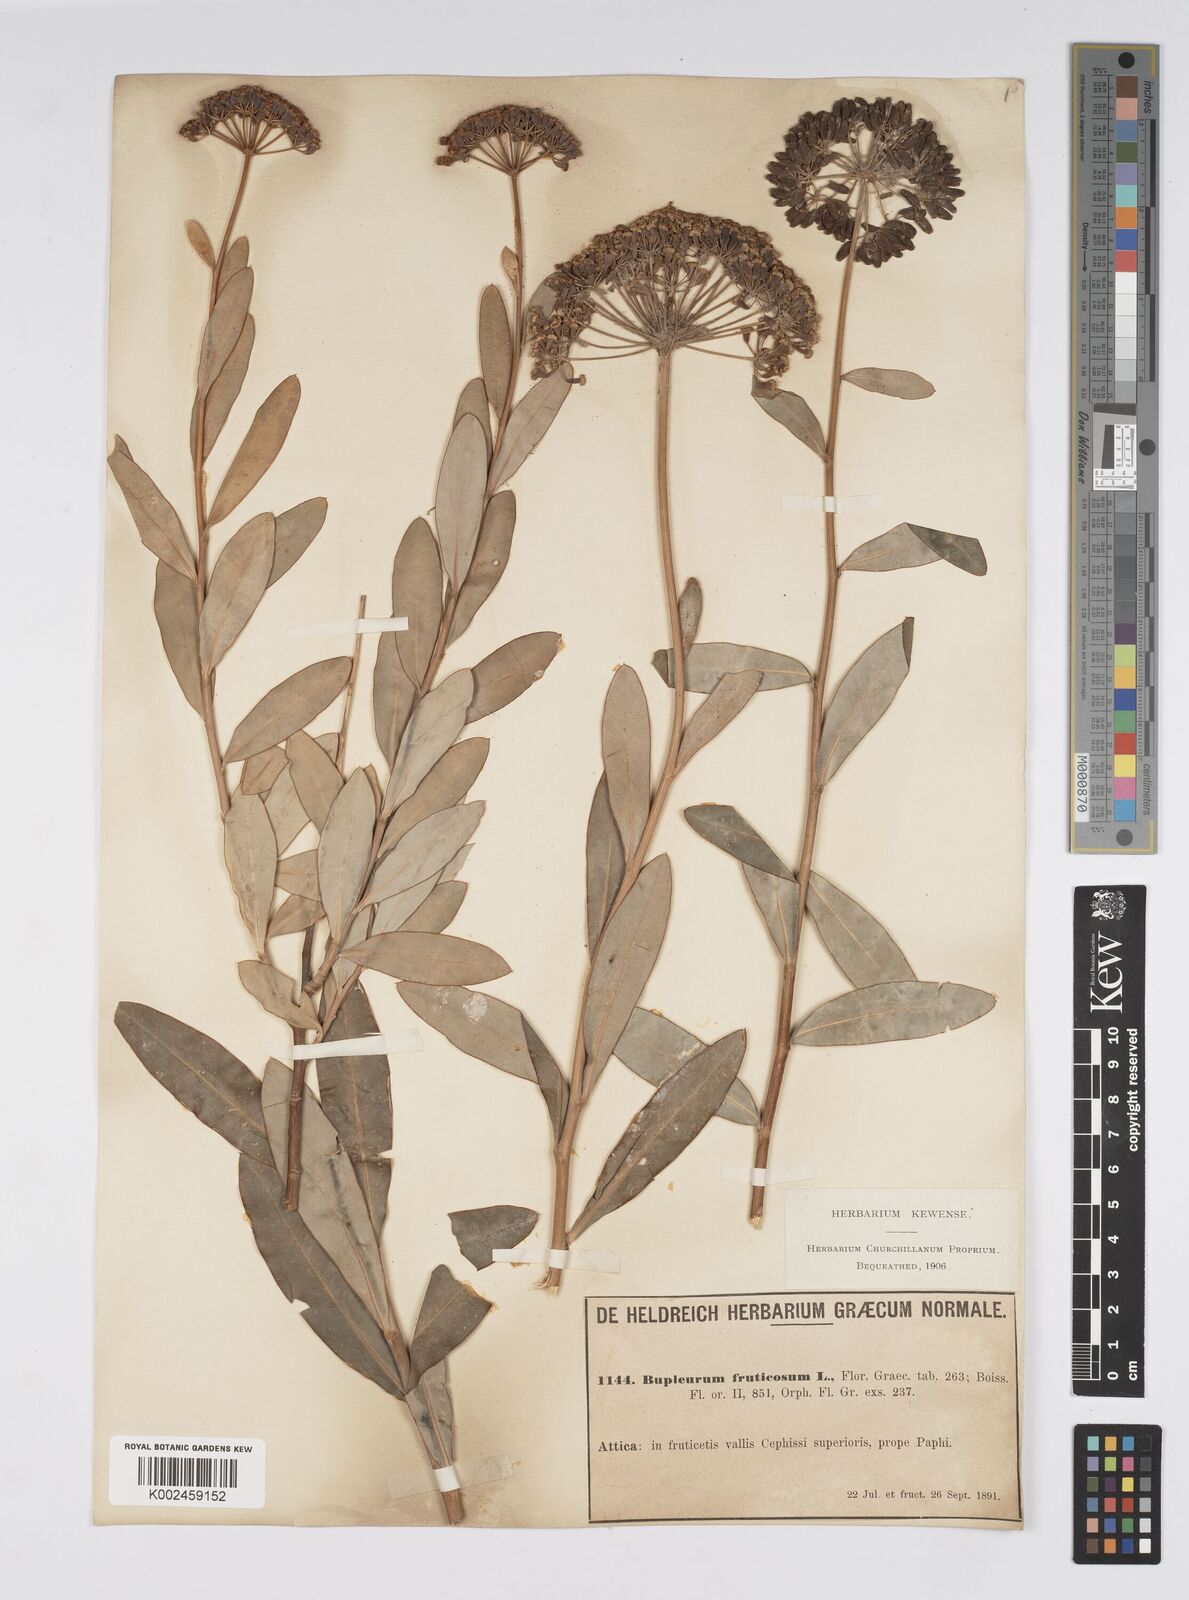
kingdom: Plantae
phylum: Tracheophyta
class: Magnoliopsida
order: Apiales
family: Apiaceae
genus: Bupleurum
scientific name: Bupleurum fruticosum
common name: Shrubby hare's-ear
